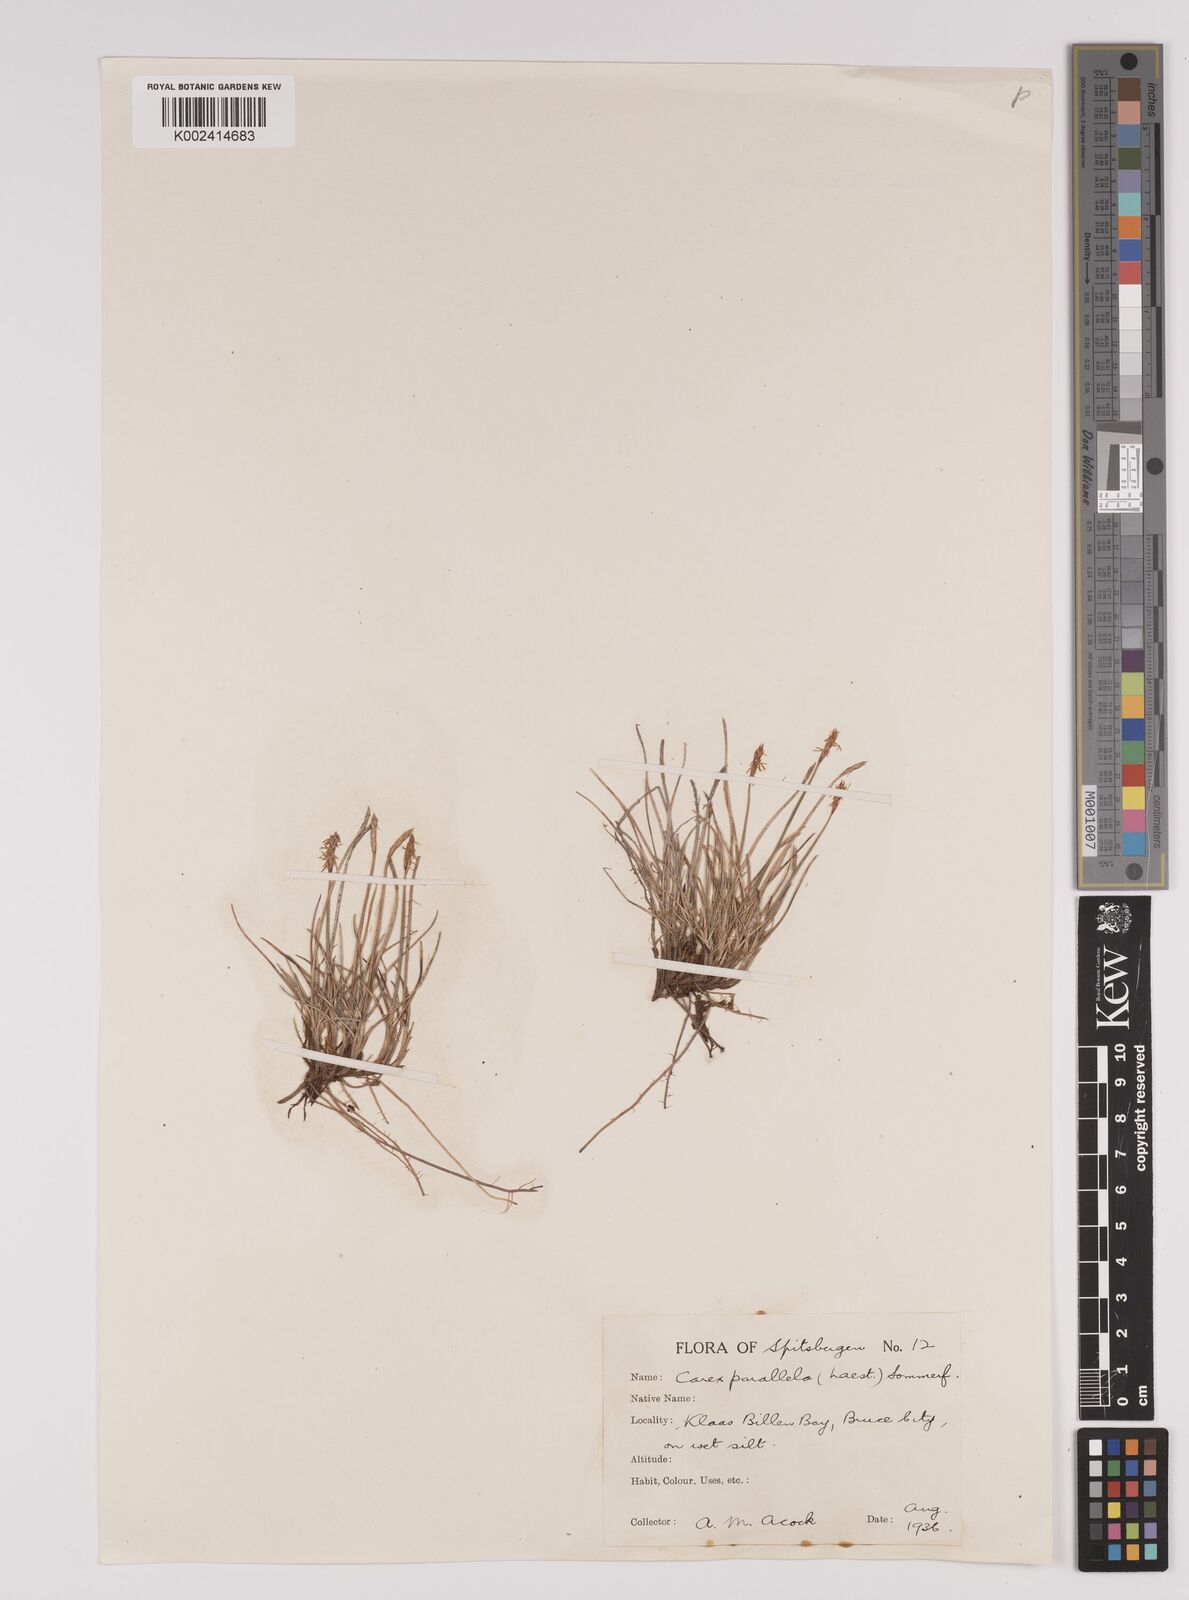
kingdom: Plantae
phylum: Tracheophyta
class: Liliopsida
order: Poales
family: Cyperaceae
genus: Carex
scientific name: Carex parallela
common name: Parallel sedge
